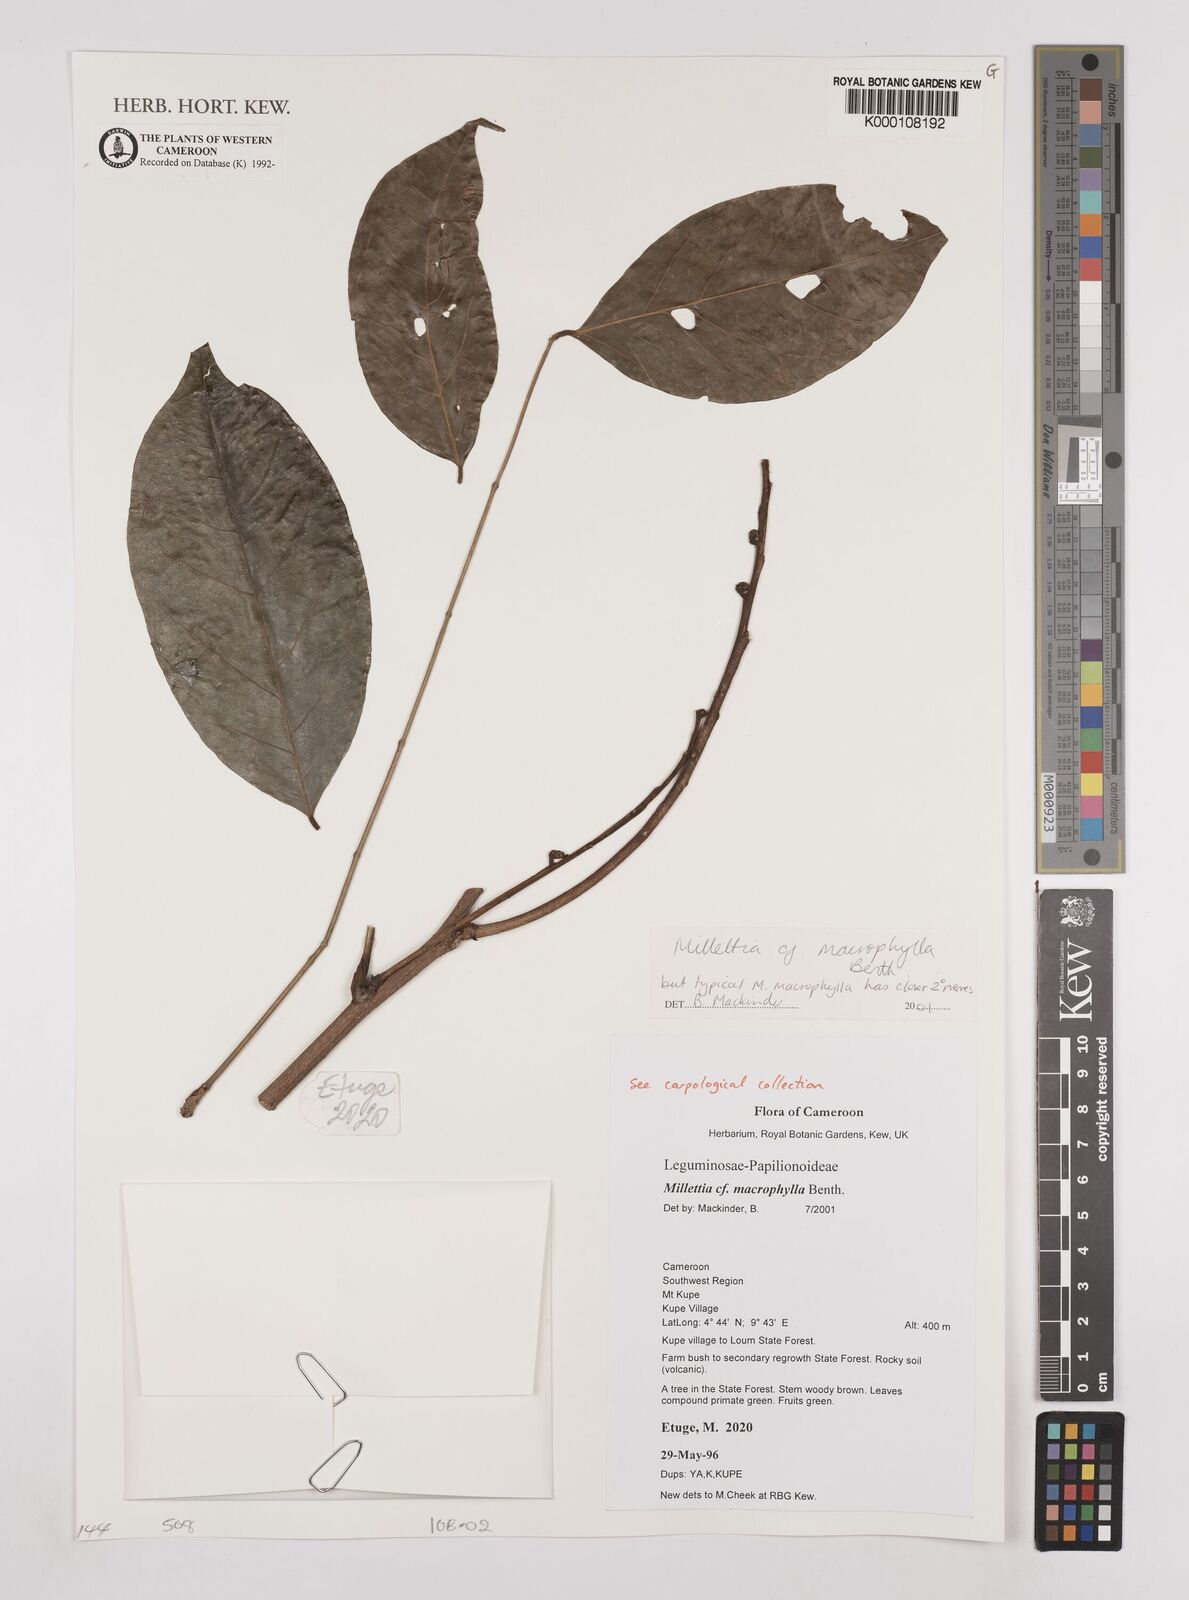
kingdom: Plantae
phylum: Tracheophyta
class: Magnoliopsida
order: Fabales
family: Fabaceae
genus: Millettia
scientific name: Millettia macrophylla
